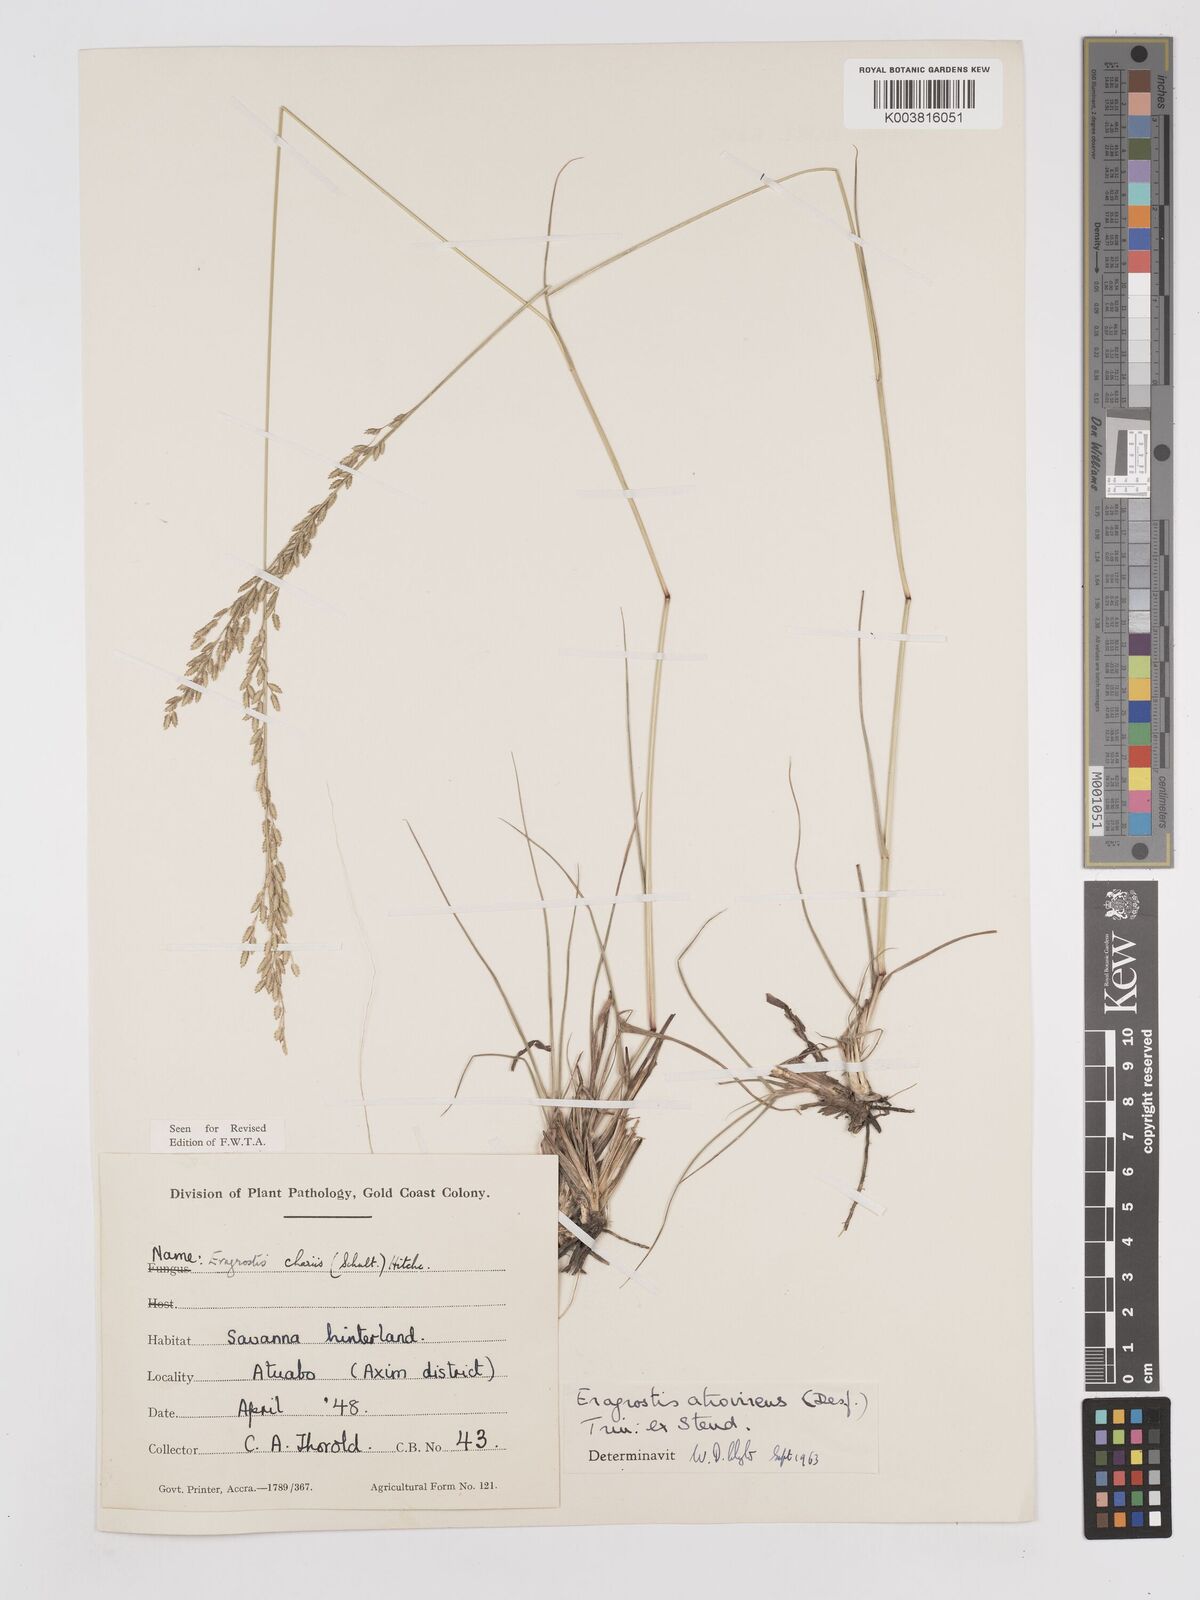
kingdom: Plantae
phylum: Tracheophyta
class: Liliopsida
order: Poales
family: Poaceae
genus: Eragrostis
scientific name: Eragrostis atrovirens
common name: Thalia lovegrass
